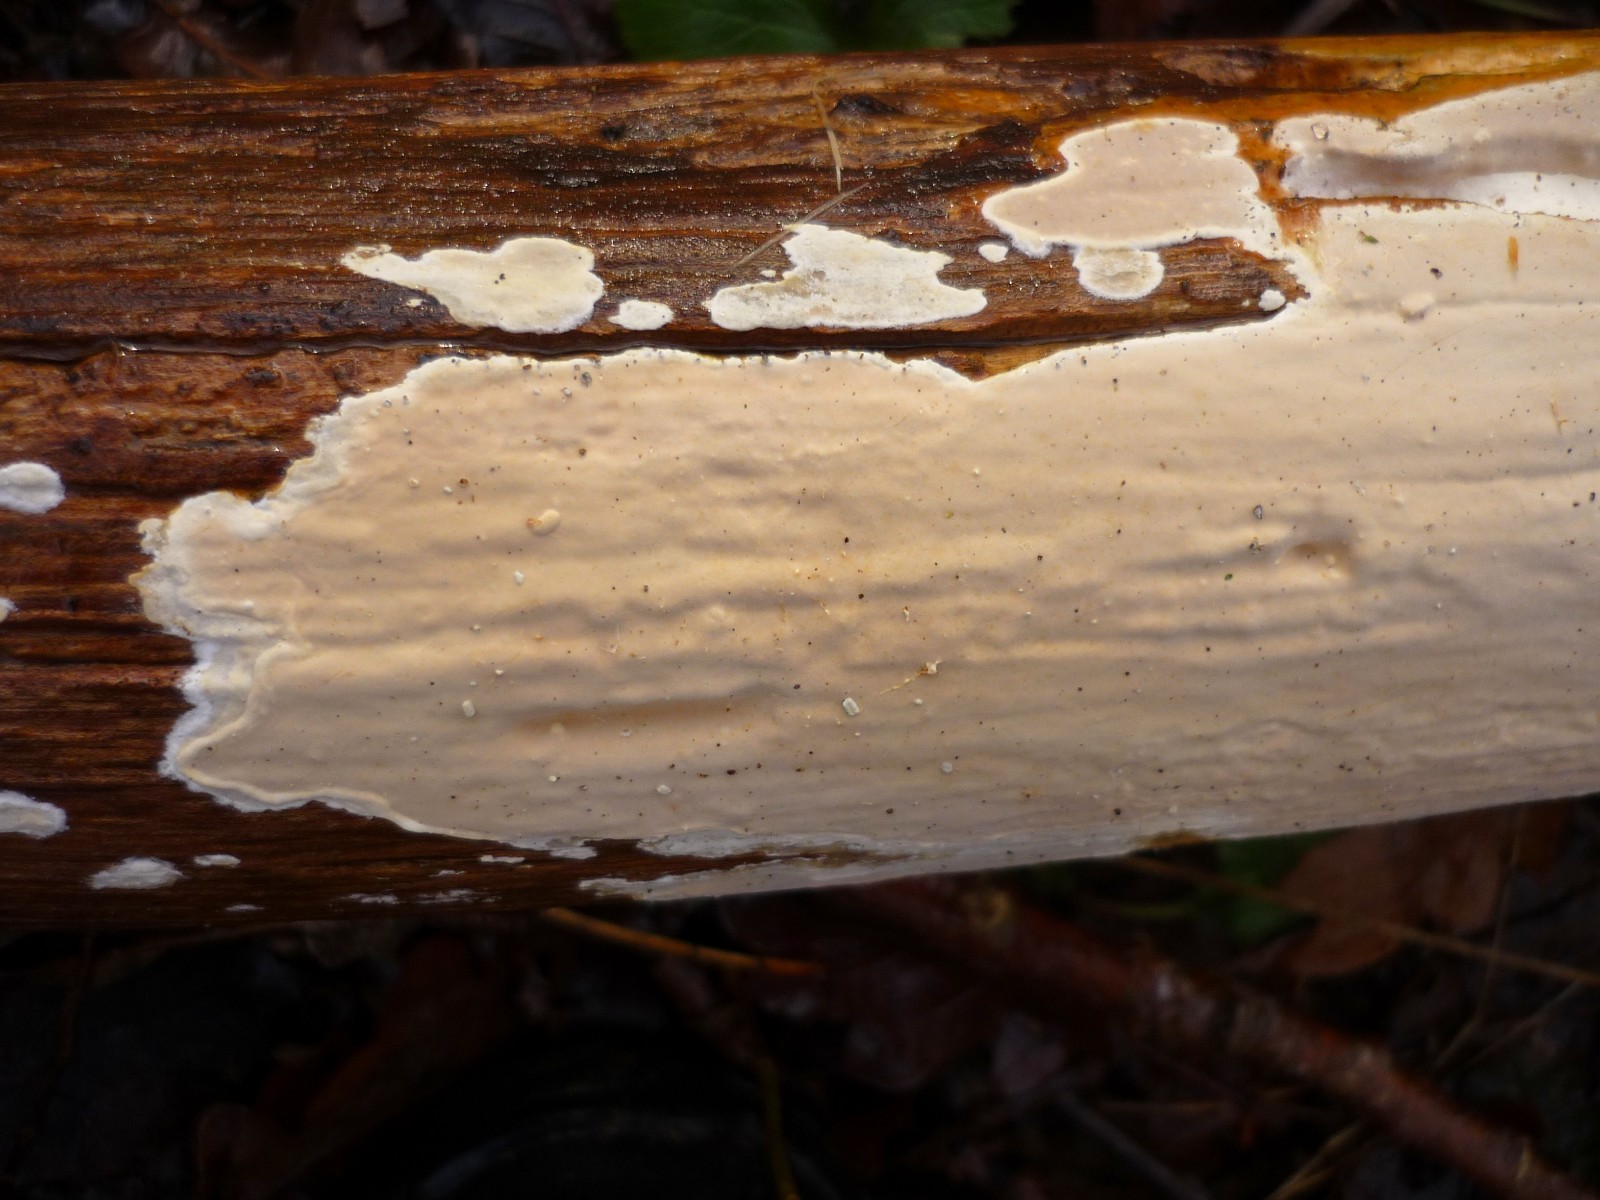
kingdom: Fungi
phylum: Basidiomycota
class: Agaricomycetes
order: Russulales
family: Peniophoraceae
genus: Scytinostroma
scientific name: Scytinostroma hemidichophyticum
